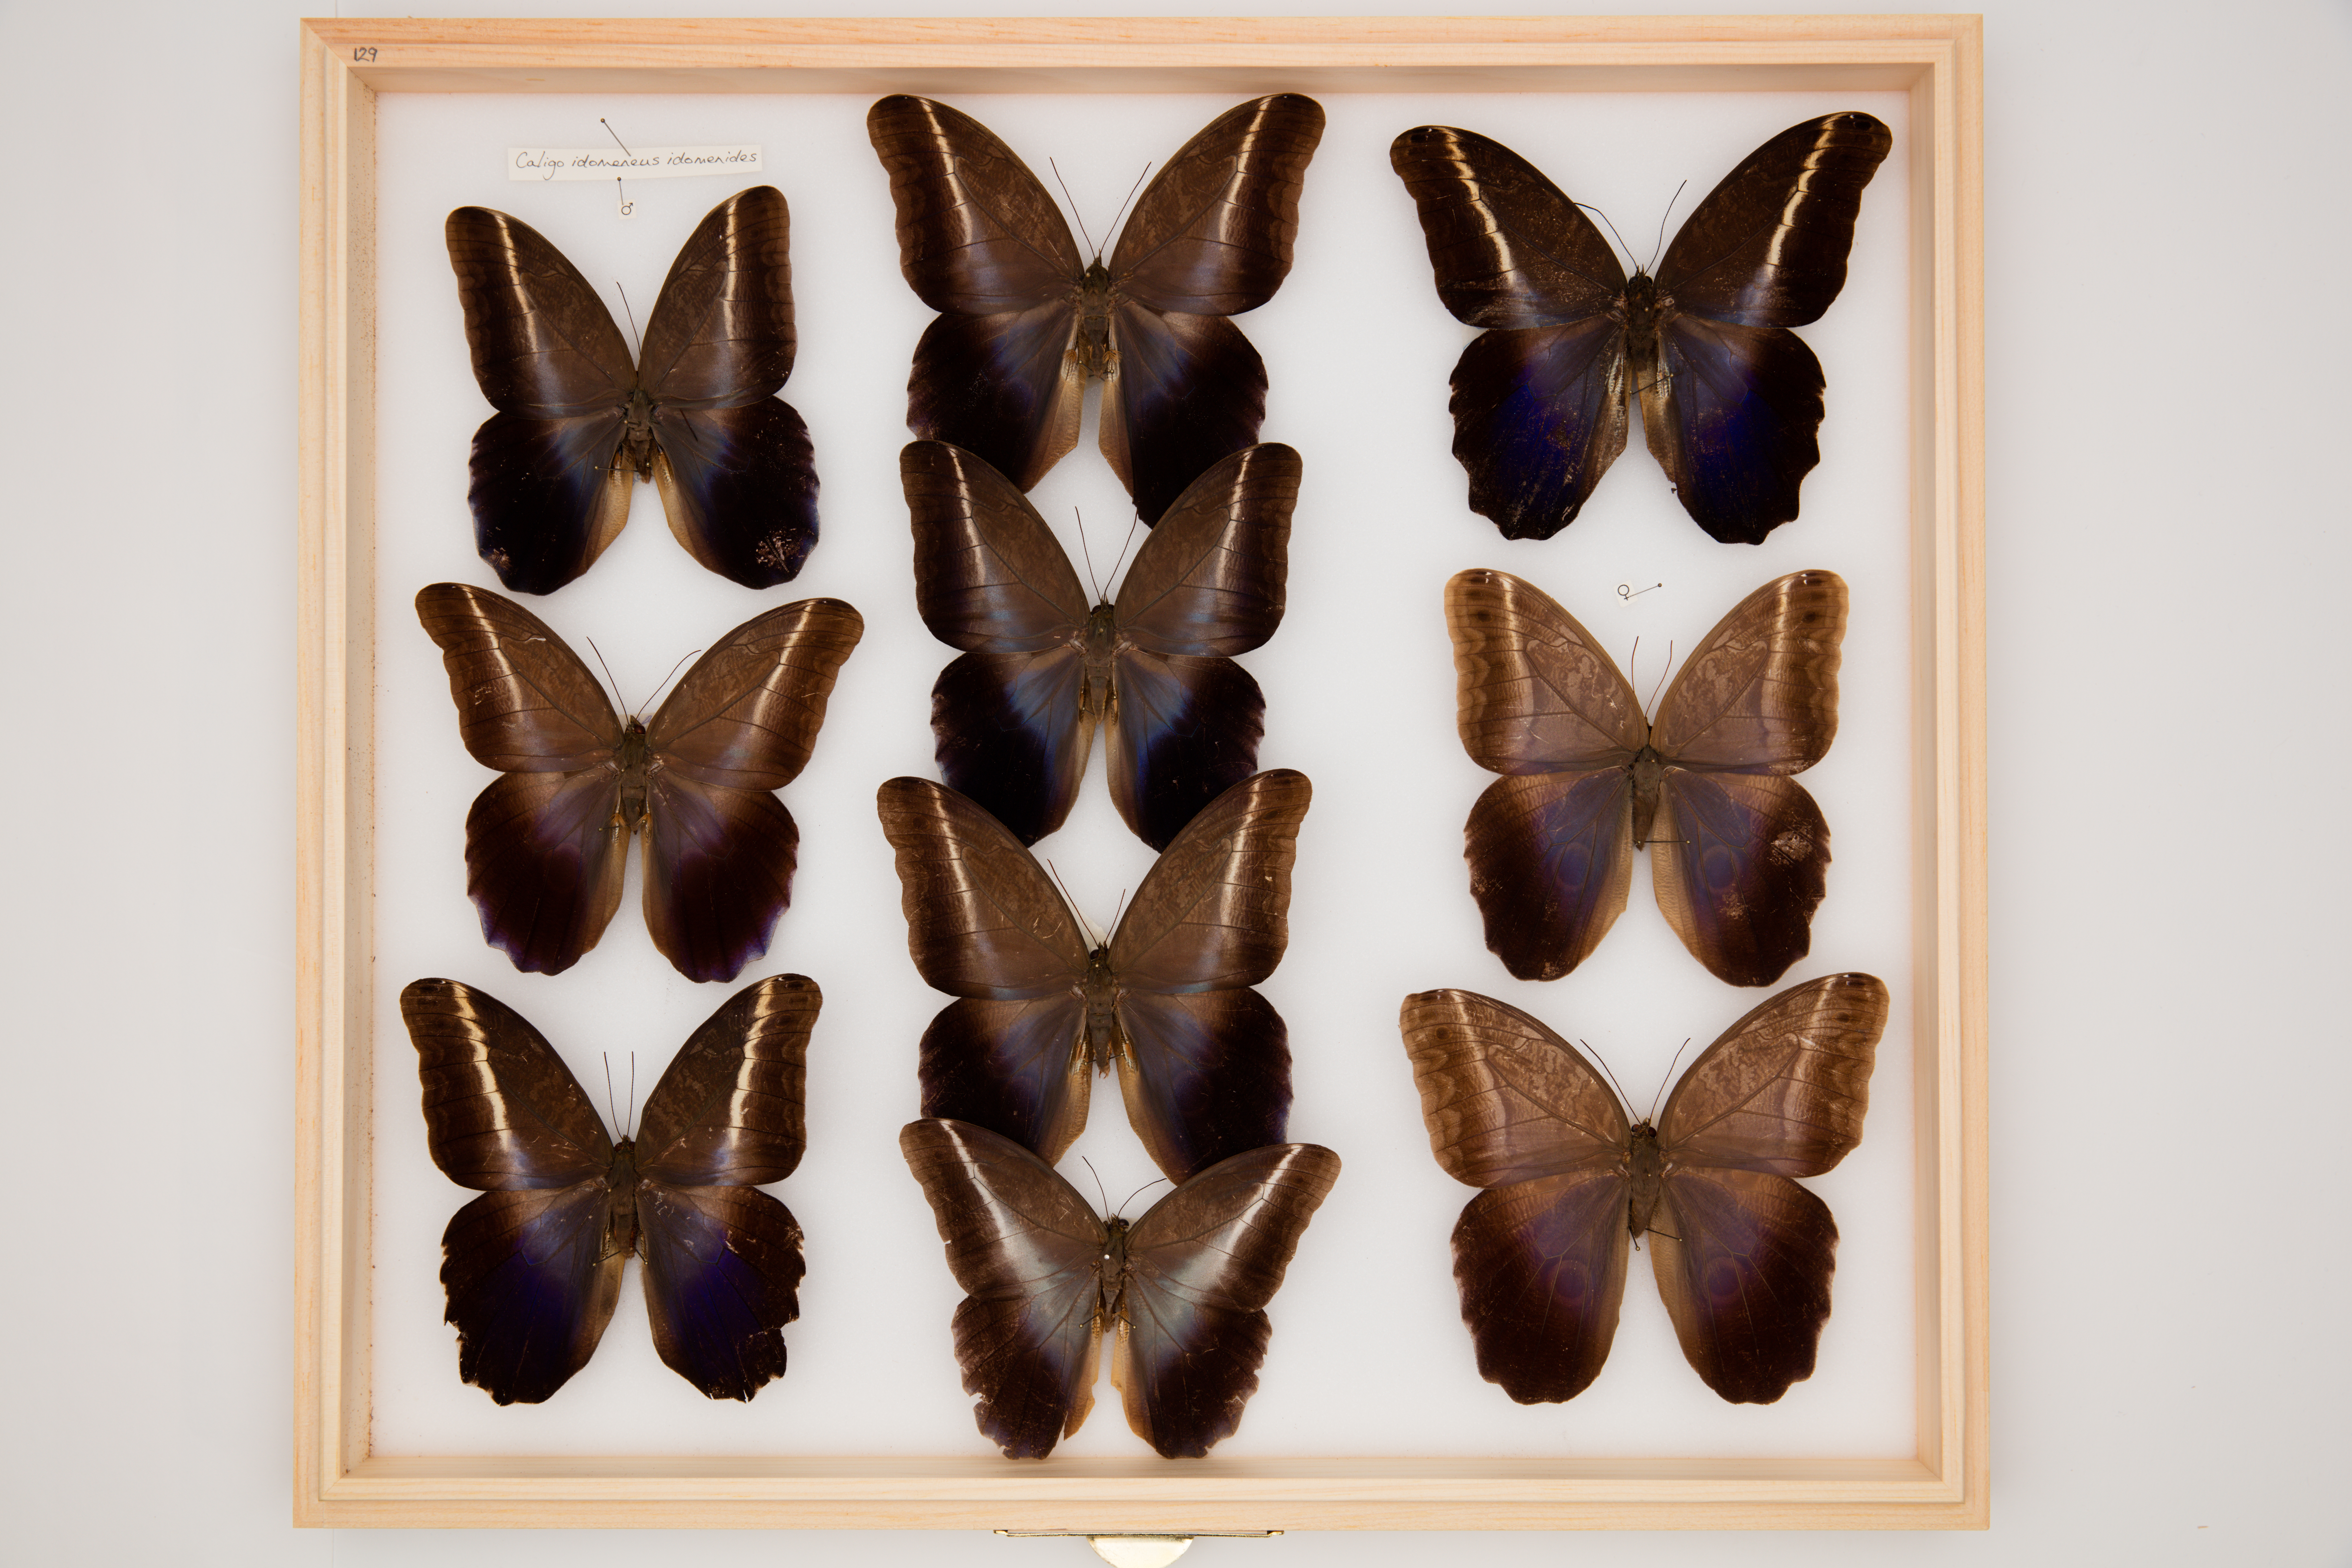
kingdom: Animalia
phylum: Arthropoda
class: Insecta
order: Lepidoptera
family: Nymphalidae
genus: Caligo
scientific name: Caligo idomeneus
